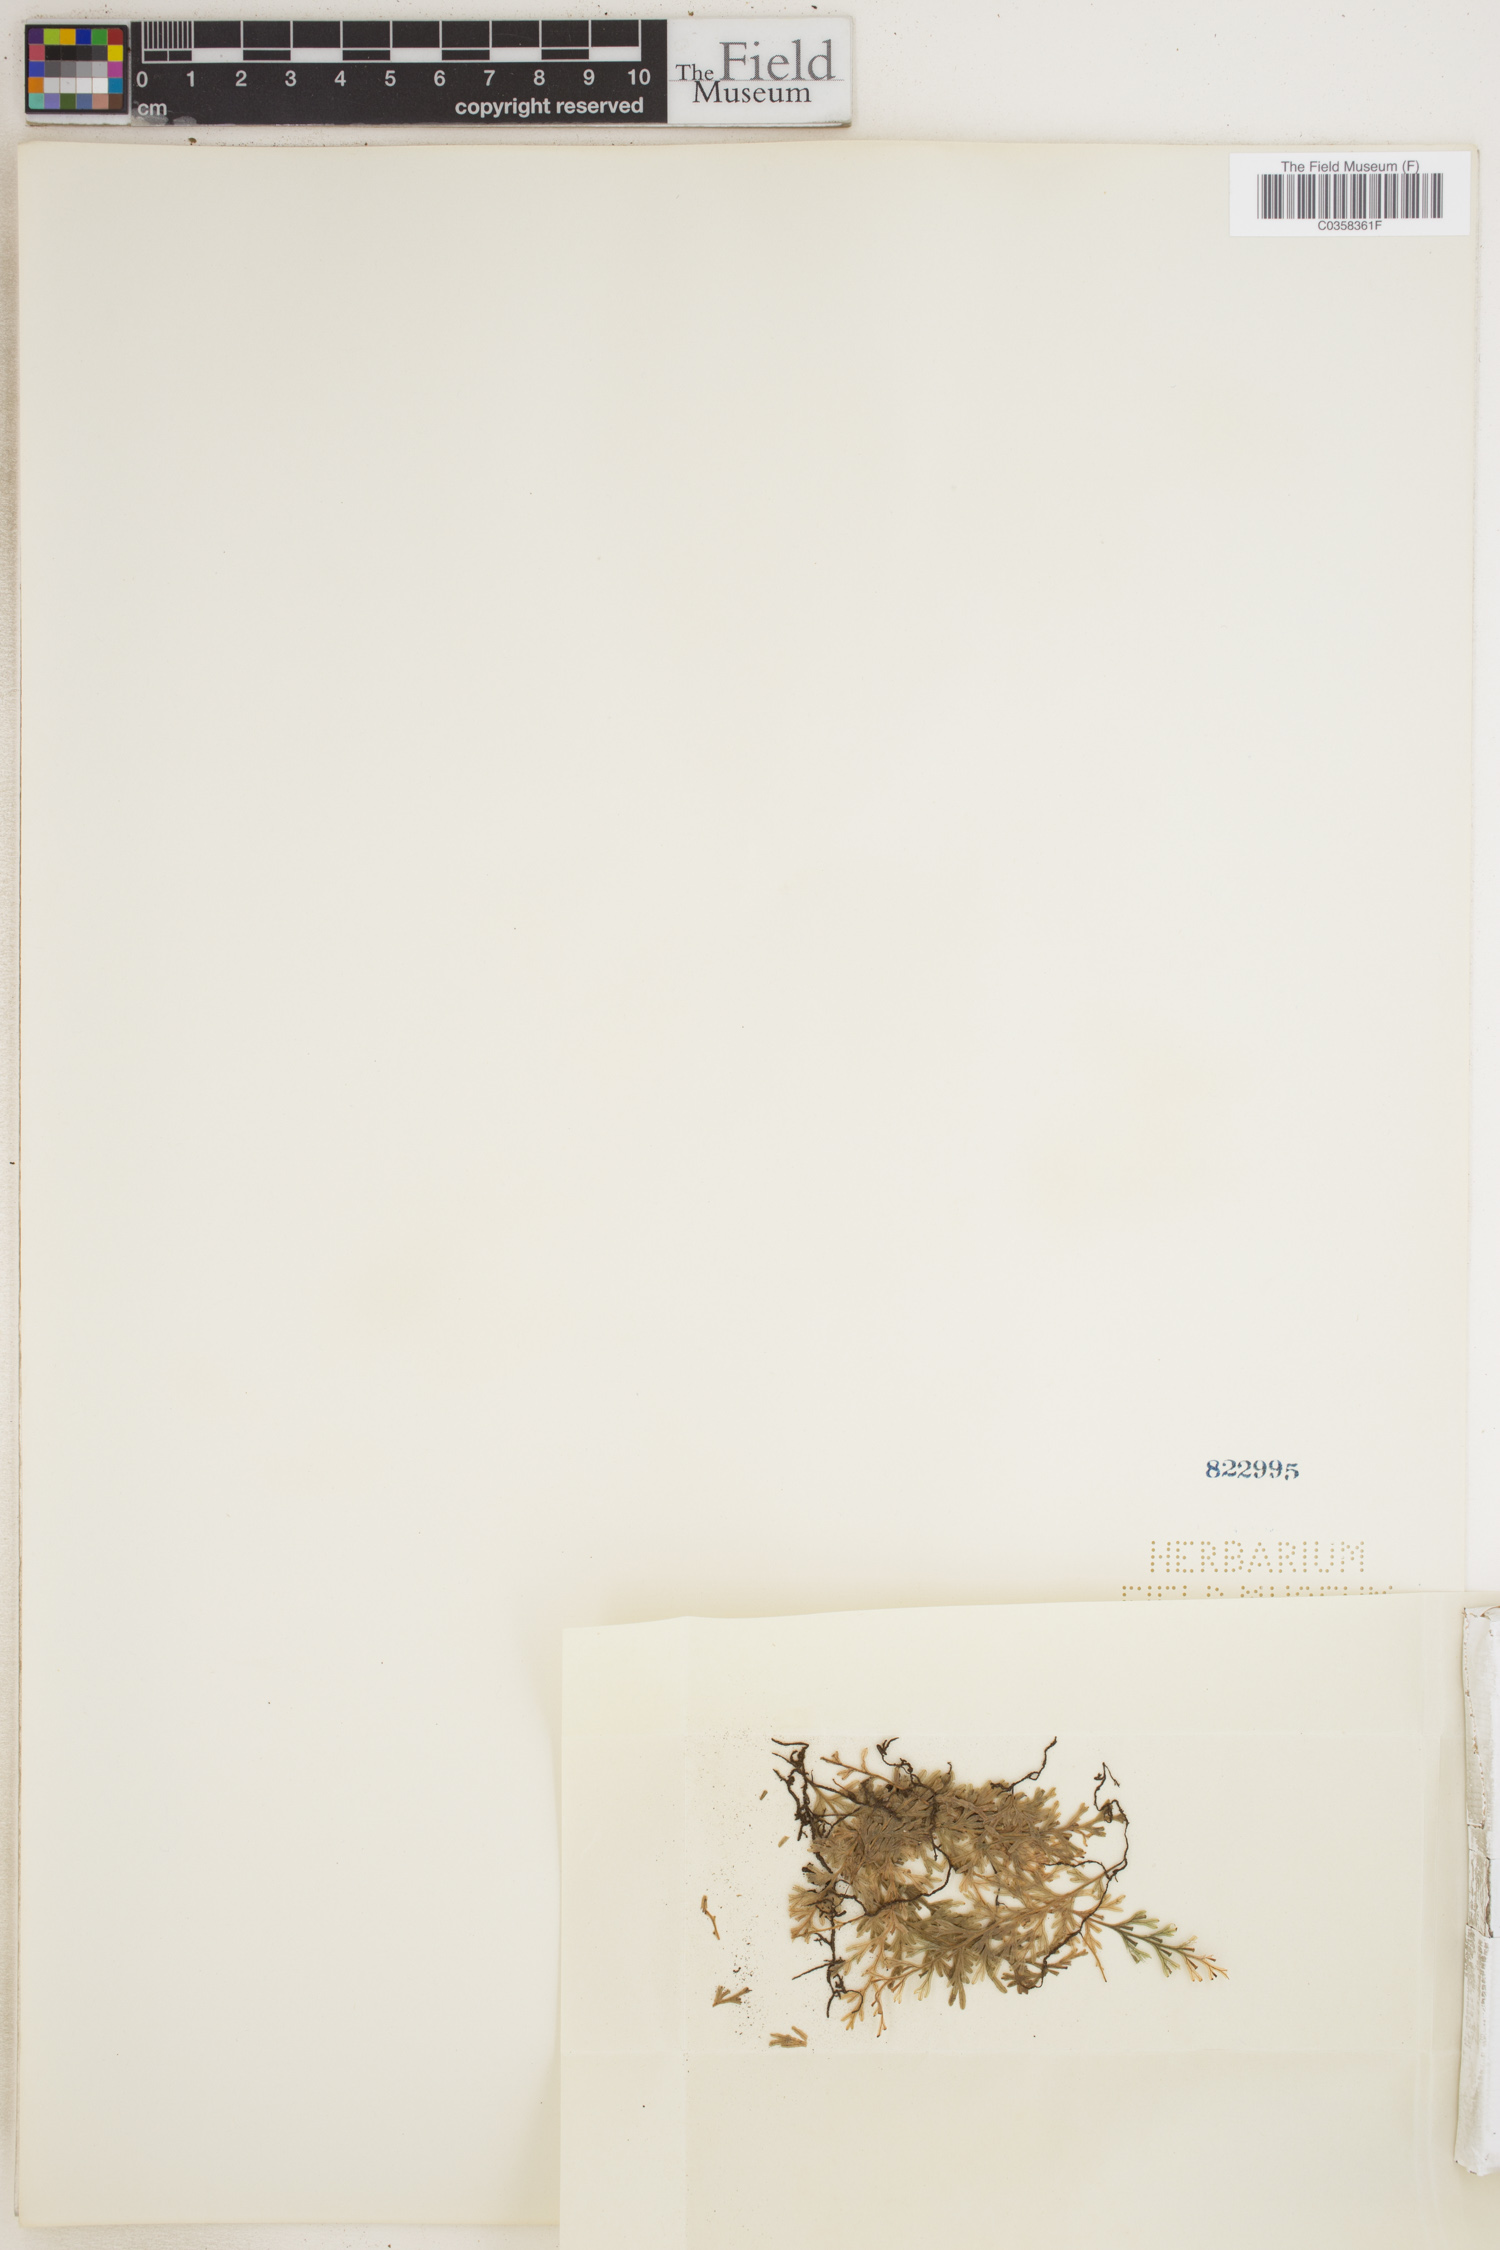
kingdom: Plantae
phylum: Tracheophyta
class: Polypodiopsida
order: Hymenophyllales
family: Hymenophyllaceae
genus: Crepidomanes
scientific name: Crepidomanes humile
